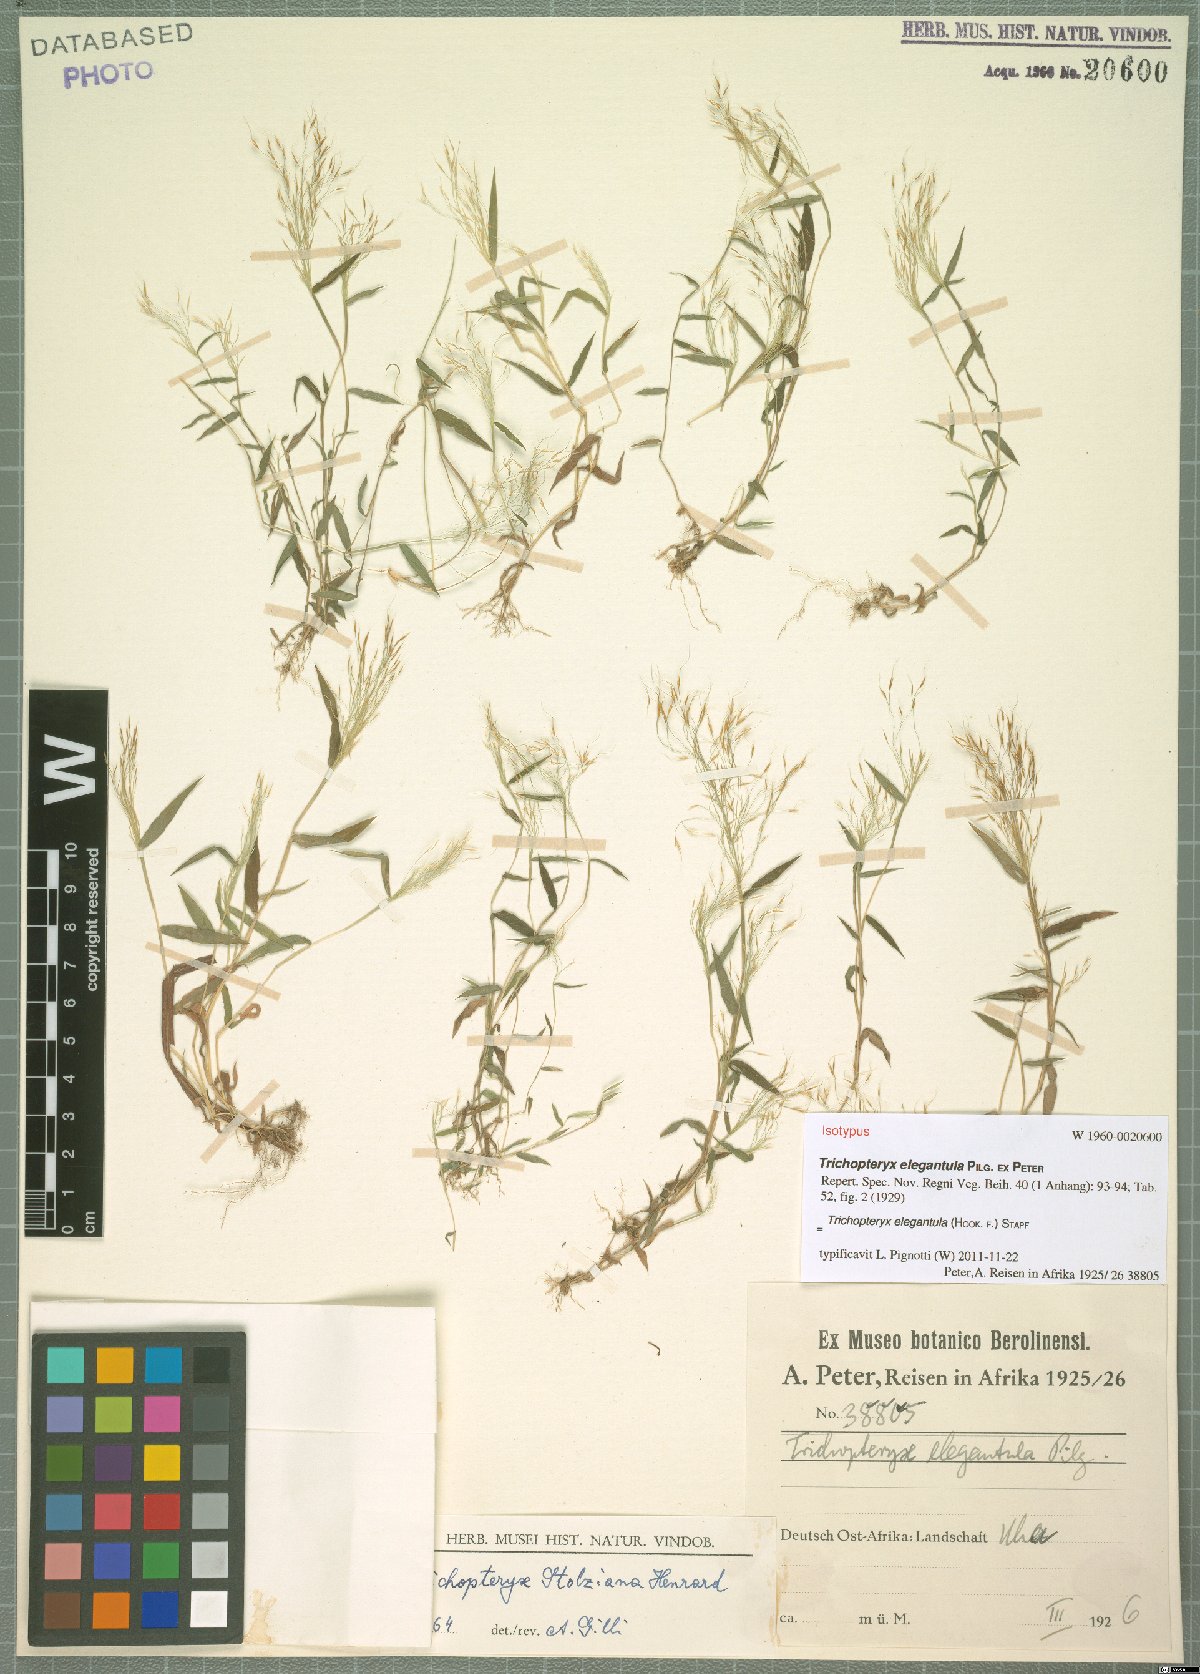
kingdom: Plantae
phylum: Tracheophyta
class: Liliopsida
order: Poales
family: Poaceae
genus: Trichopteryx
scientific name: Trichopteryx elegantula
